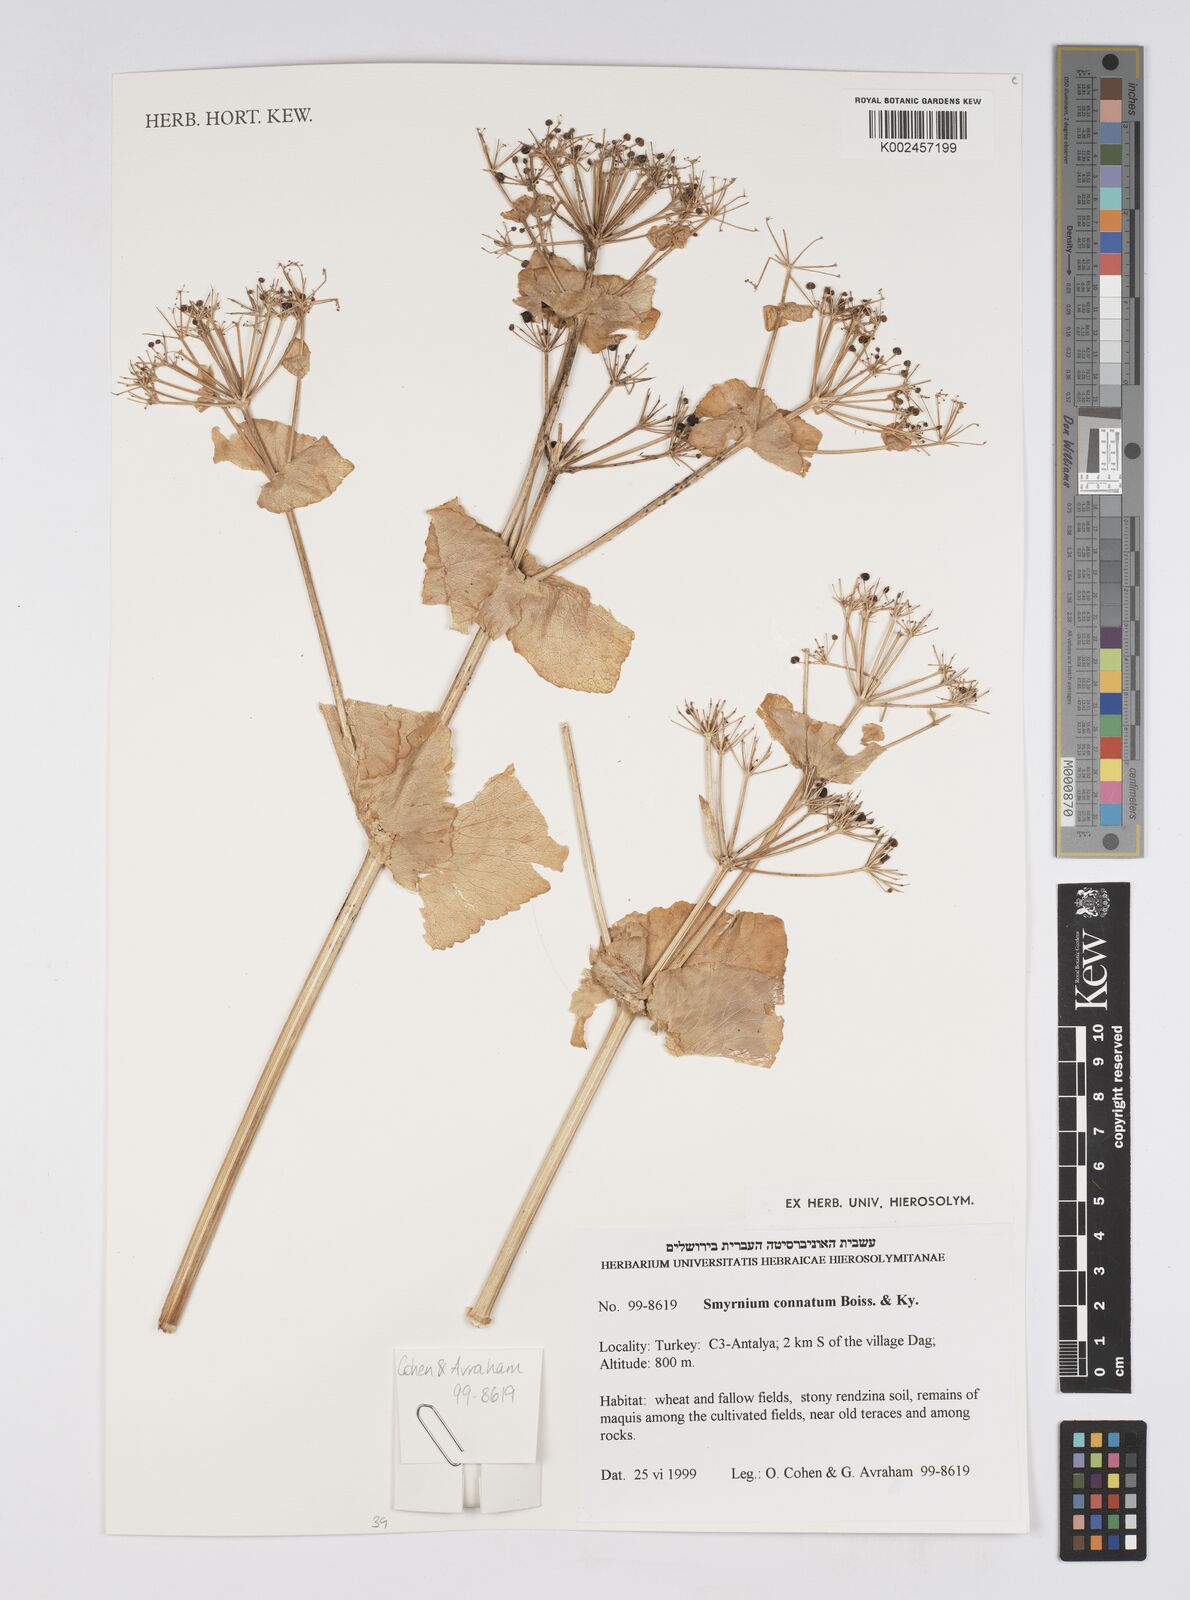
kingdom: Plantae
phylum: Tracheophyta
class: Magnoliopsida
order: Apiales
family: Apiaceae
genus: Smyrnium
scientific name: Smyrnium connatum
